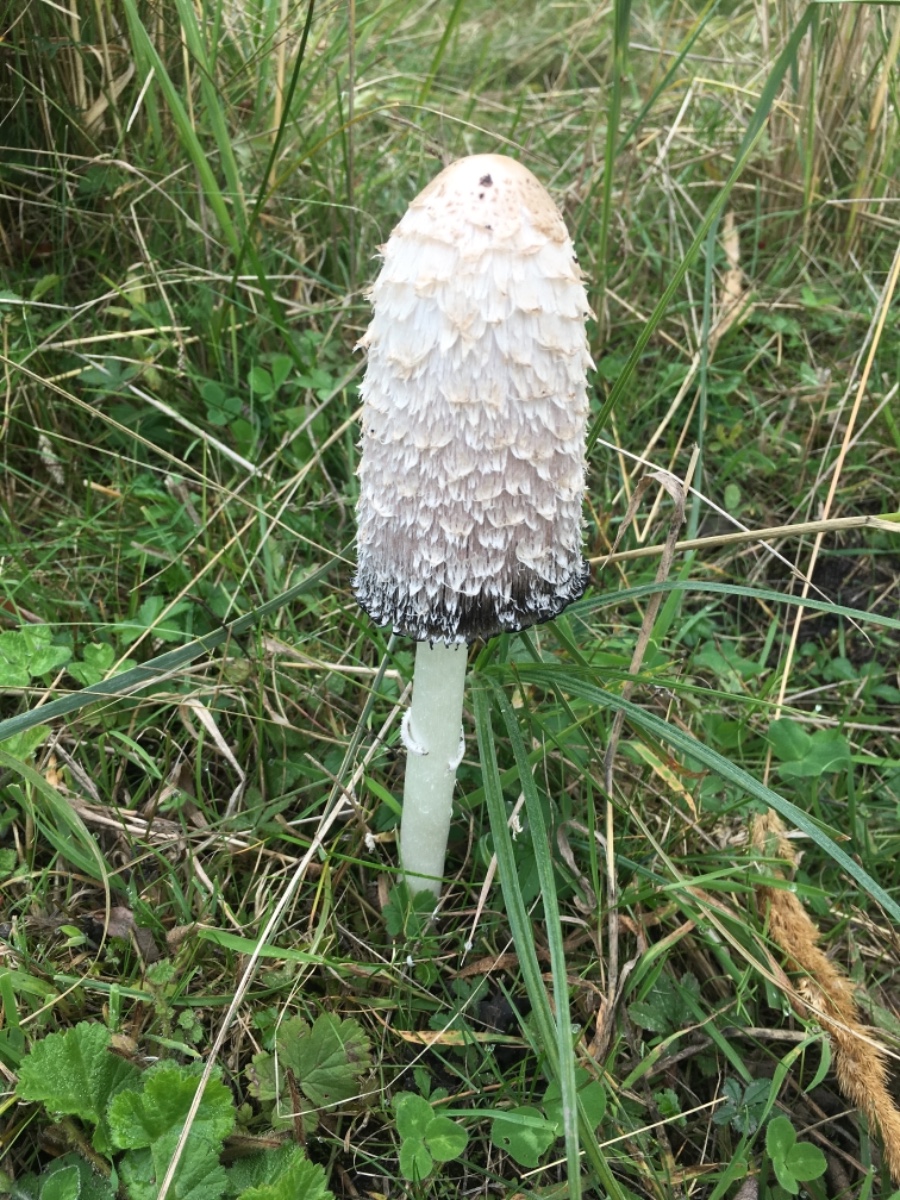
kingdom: Fungi
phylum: Basidiomycota
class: Agaricomycetes
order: Agaricales
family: Agaricaceae
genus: Coprinus
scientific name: Coprinus comatus
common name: stor parykhat
